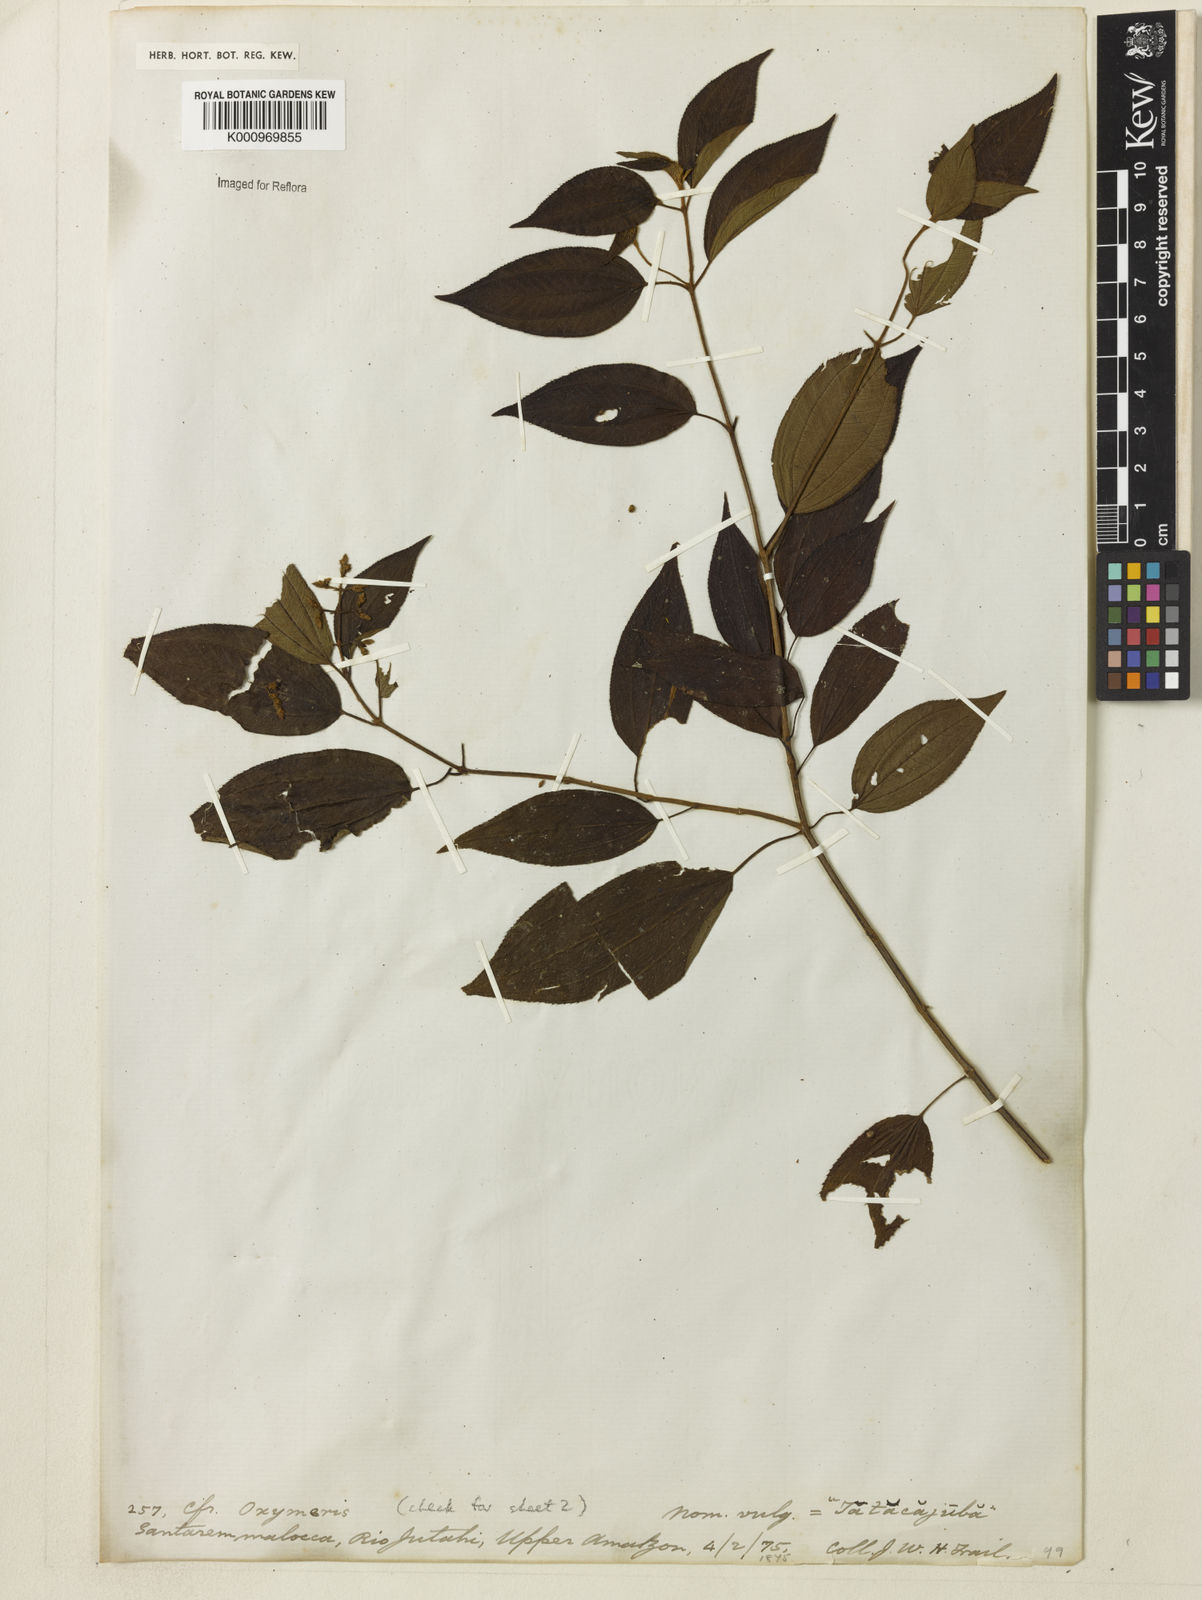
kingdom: Plantae
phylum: Tracheophyta
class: Magnoliopsida
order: Myrtales
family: Melastomataceae
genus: Miconia
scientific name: Miconia
